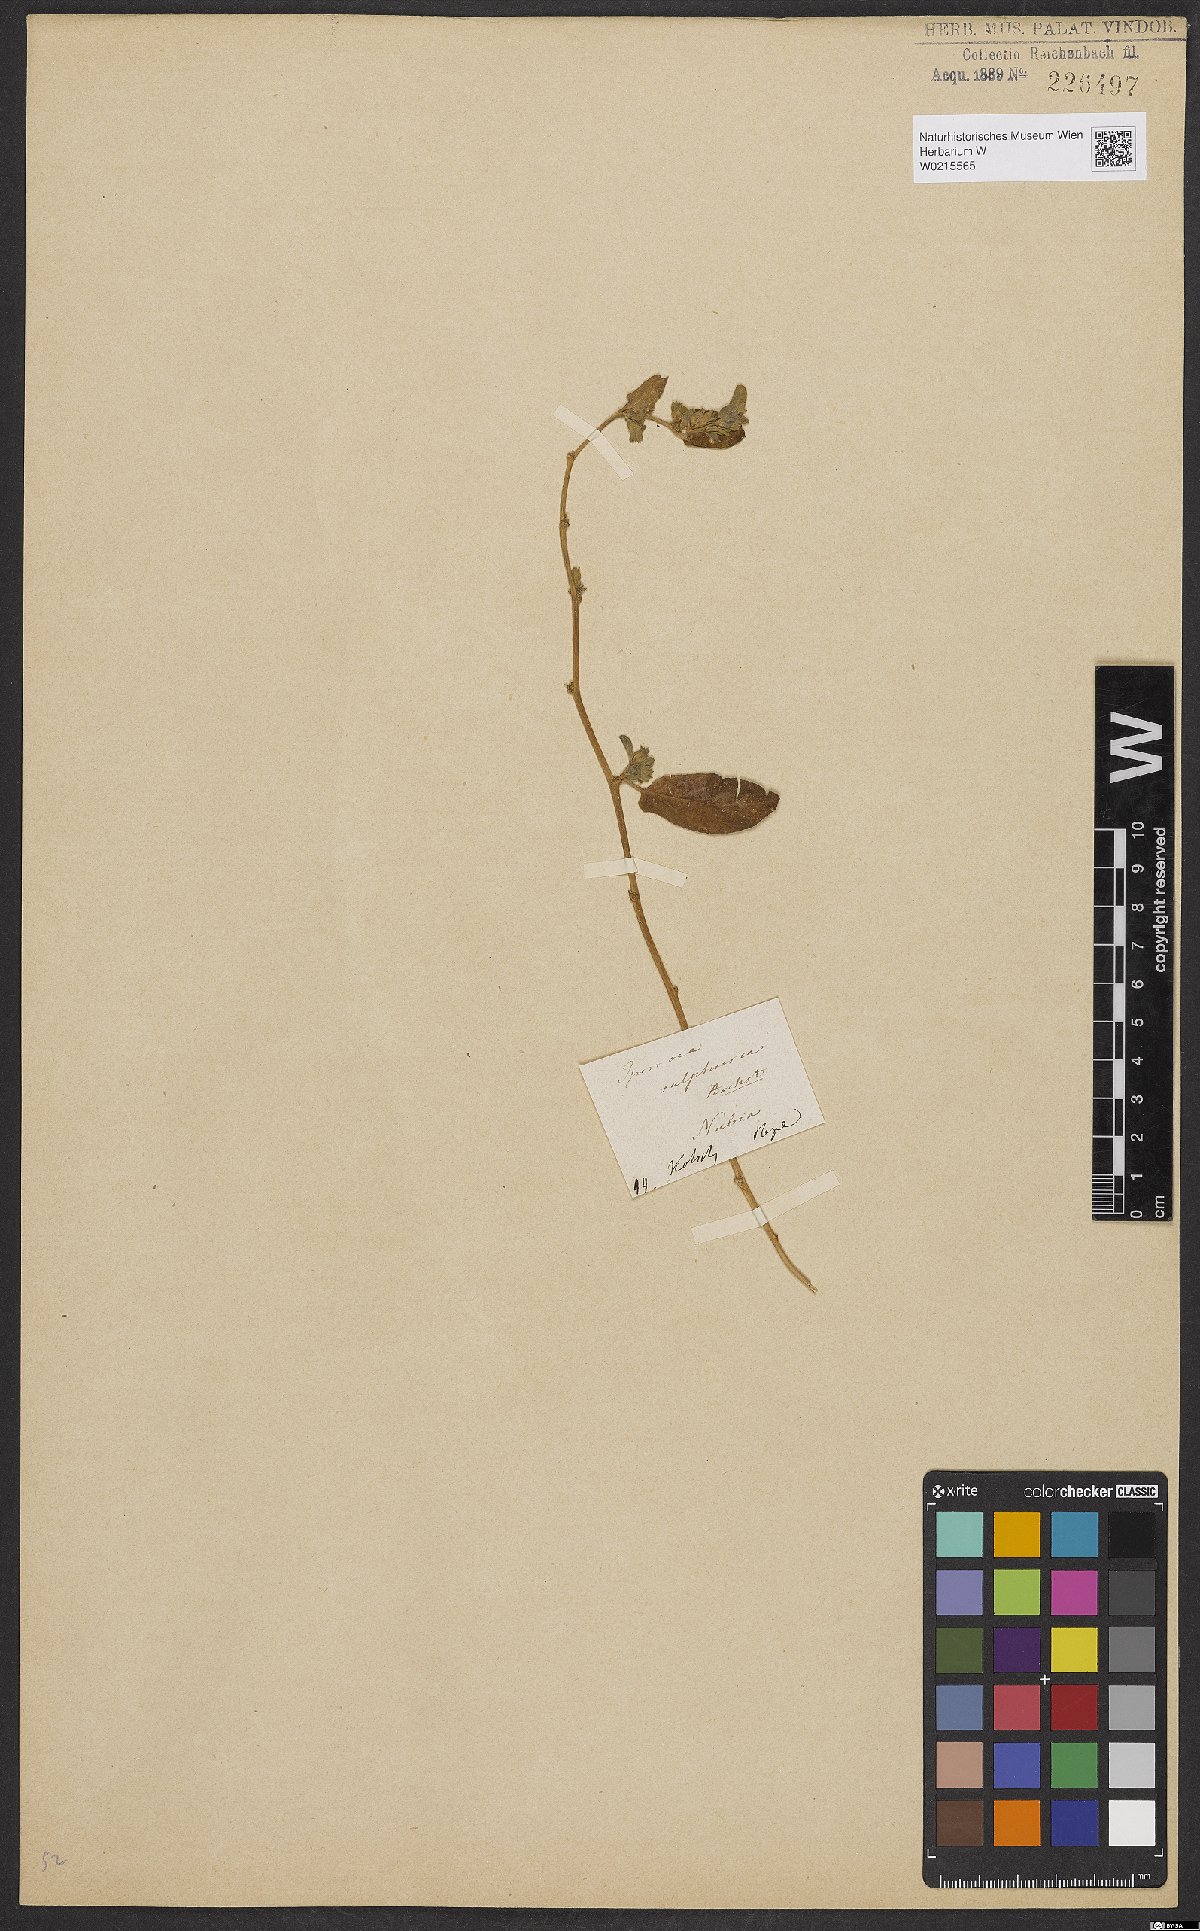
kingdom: Plantae
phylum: Tracheophyta
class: Magnoliopsida
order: Solanales
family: Convolvulaceae
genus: Ipomoea
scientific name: Ipomoea vagans
